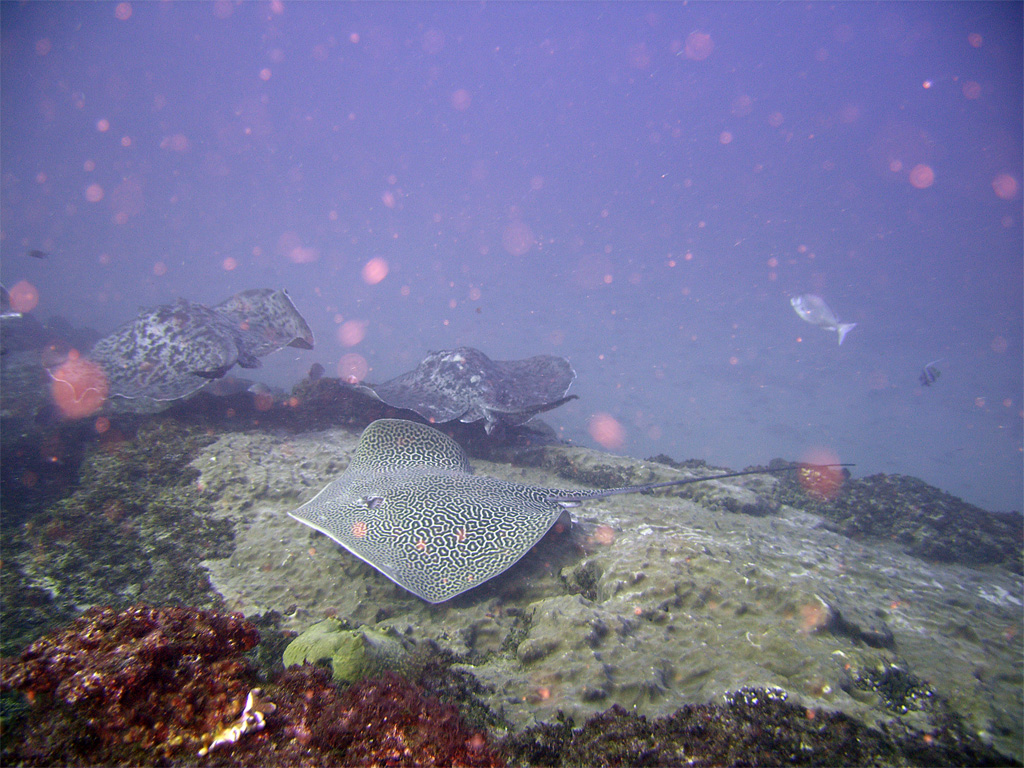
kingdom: Animalia
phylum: Chordata
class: Elasmobranchii
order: Myliobatiformes
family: Dasyatidae
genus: Taeniurops
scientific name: Taeniurops meyeni
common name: Black-blotched stingray
